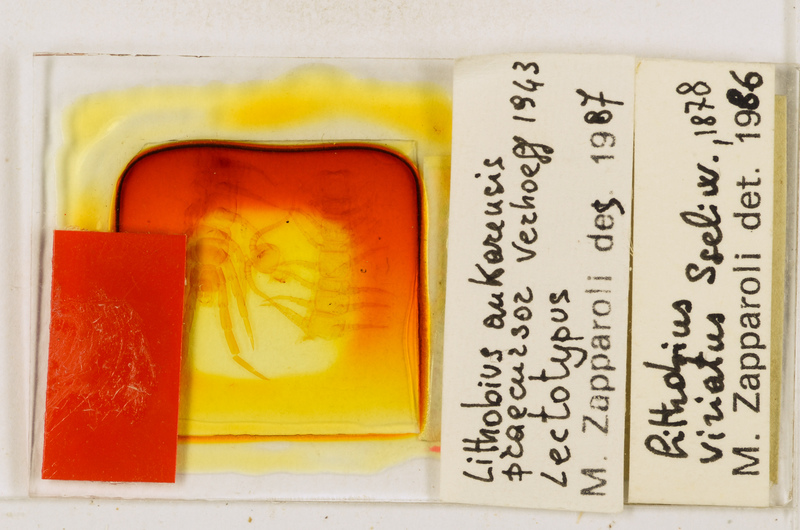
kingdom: Animalia
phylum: Arthropoda
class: Chilopoda
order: Lithobiomorpha
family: Lithobiidae
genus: Lithobius
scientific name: Lithobius viriatus
